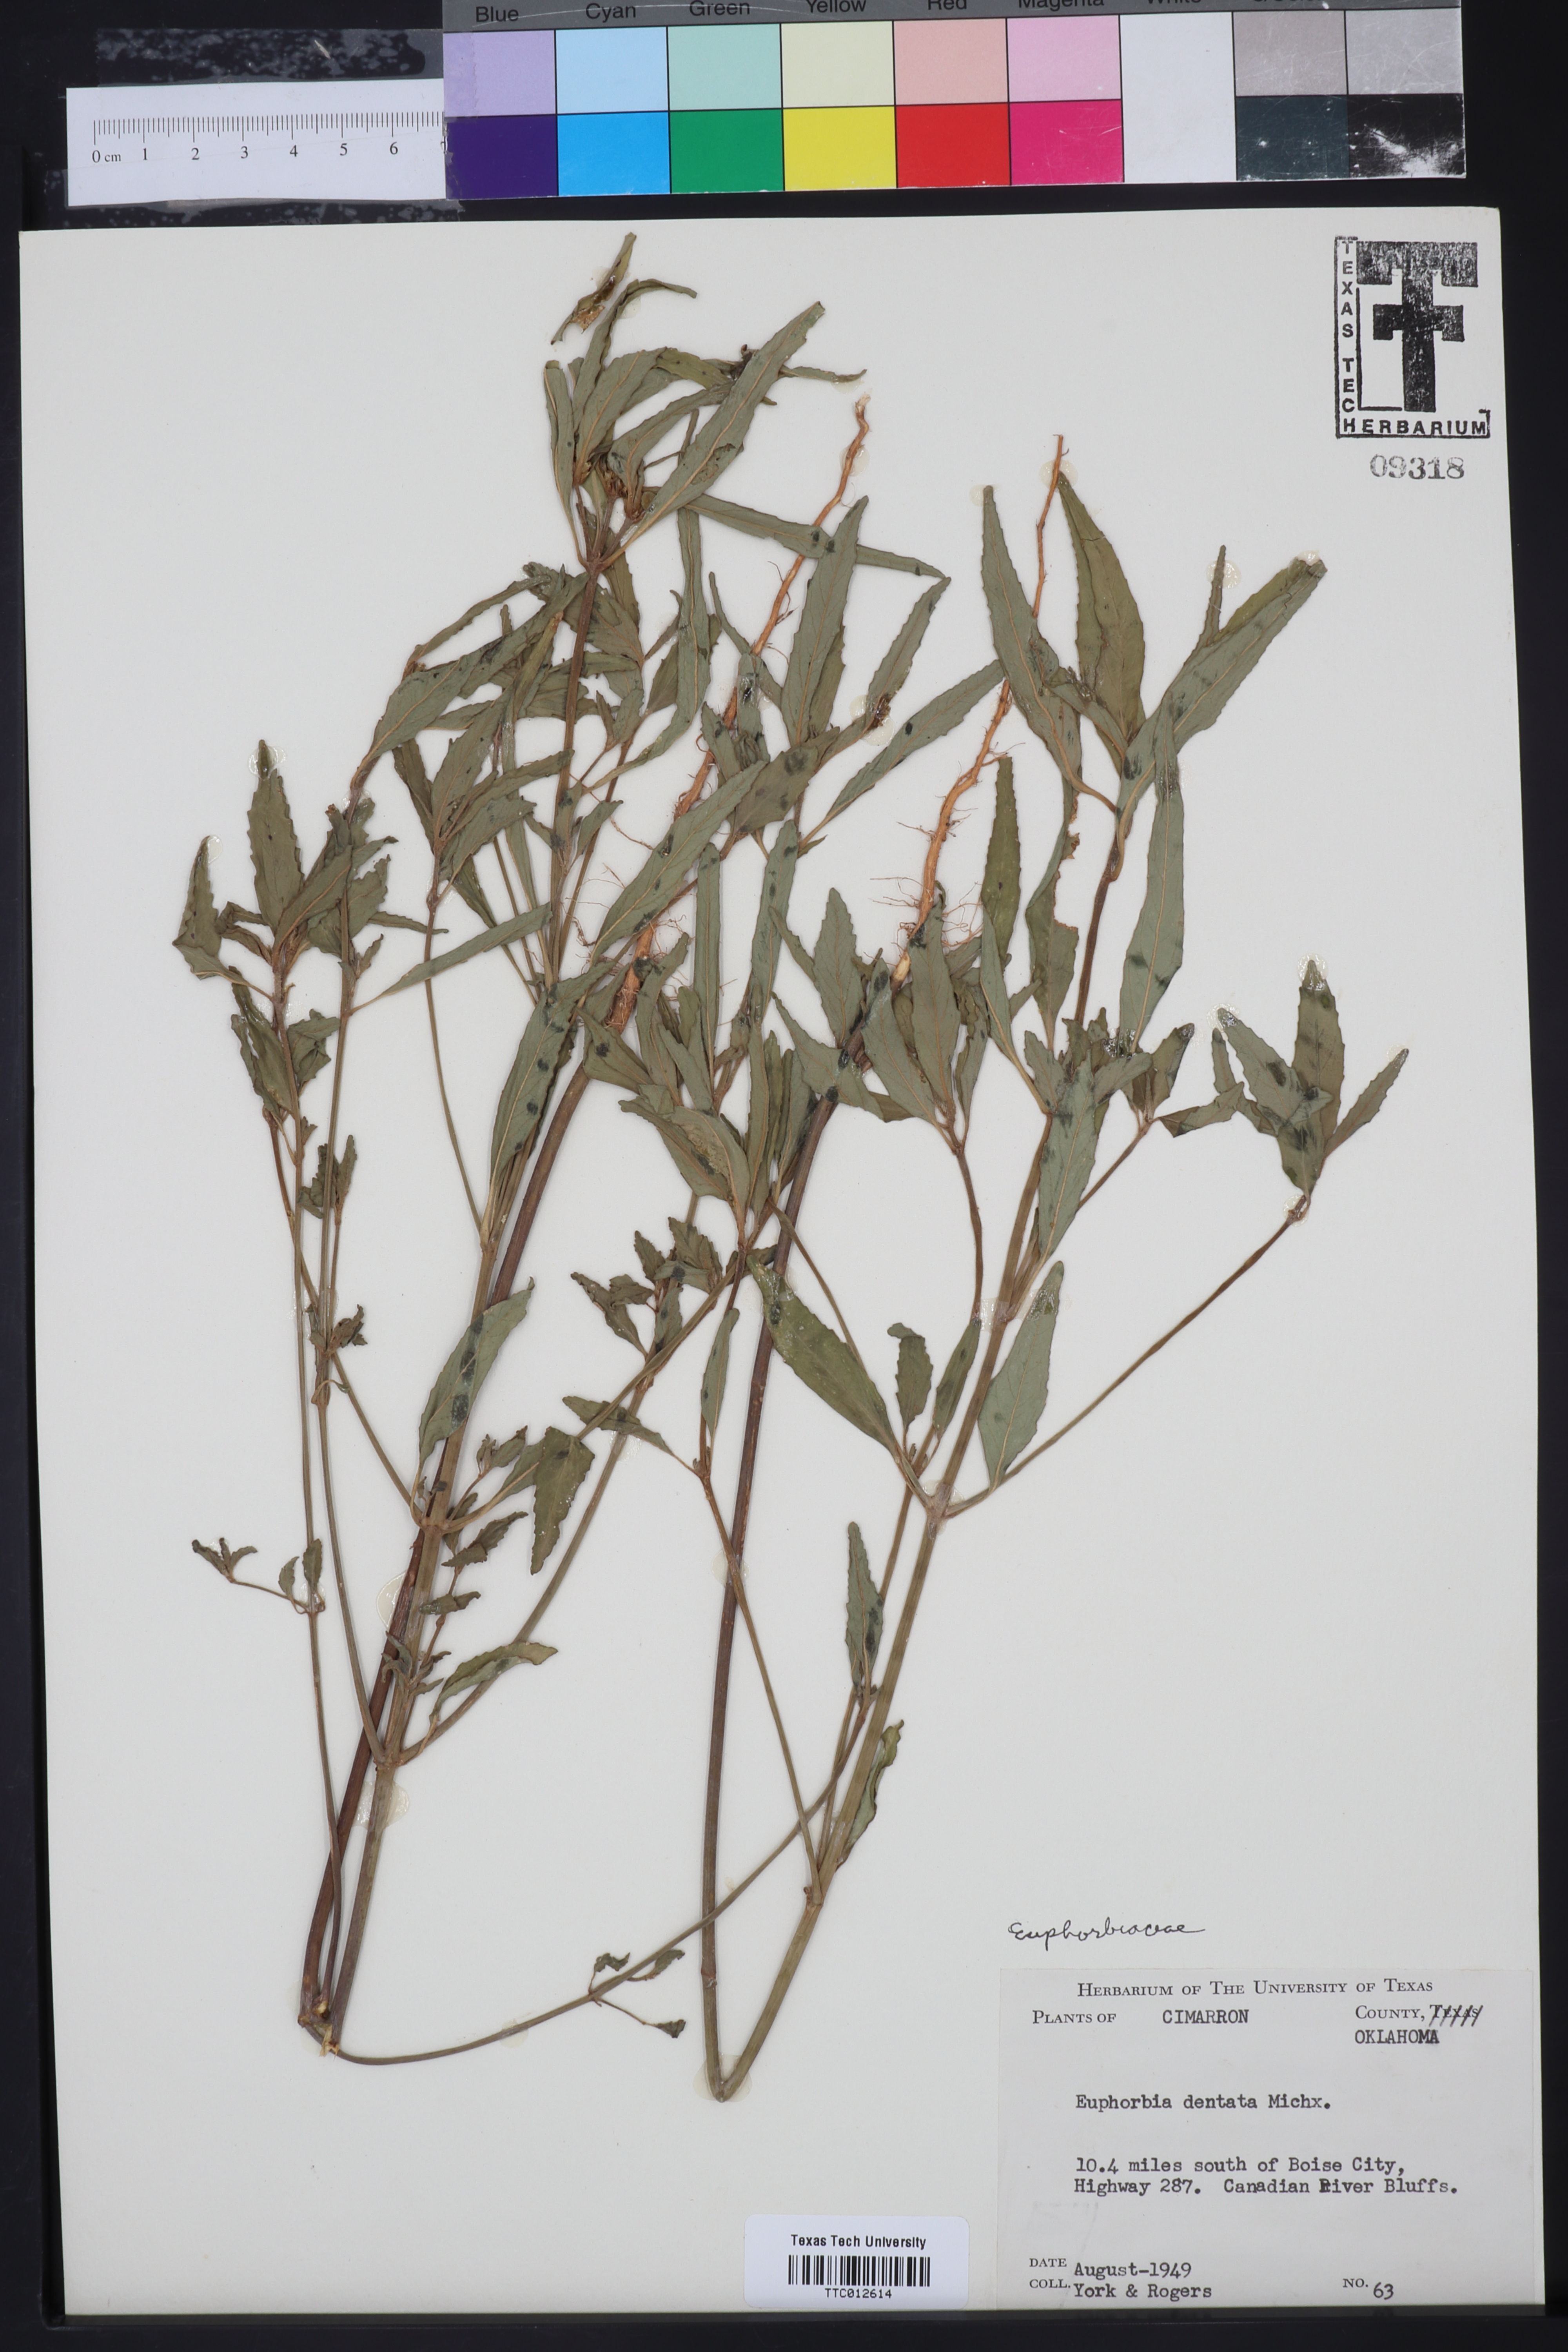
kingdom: Plantae
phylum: Tracheophyta
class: Magnoliopsida
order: Malpighiales
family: Euphorbiaceae
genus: Euphorbia
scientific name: Euphorbia dentata
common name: Dentate spurge
